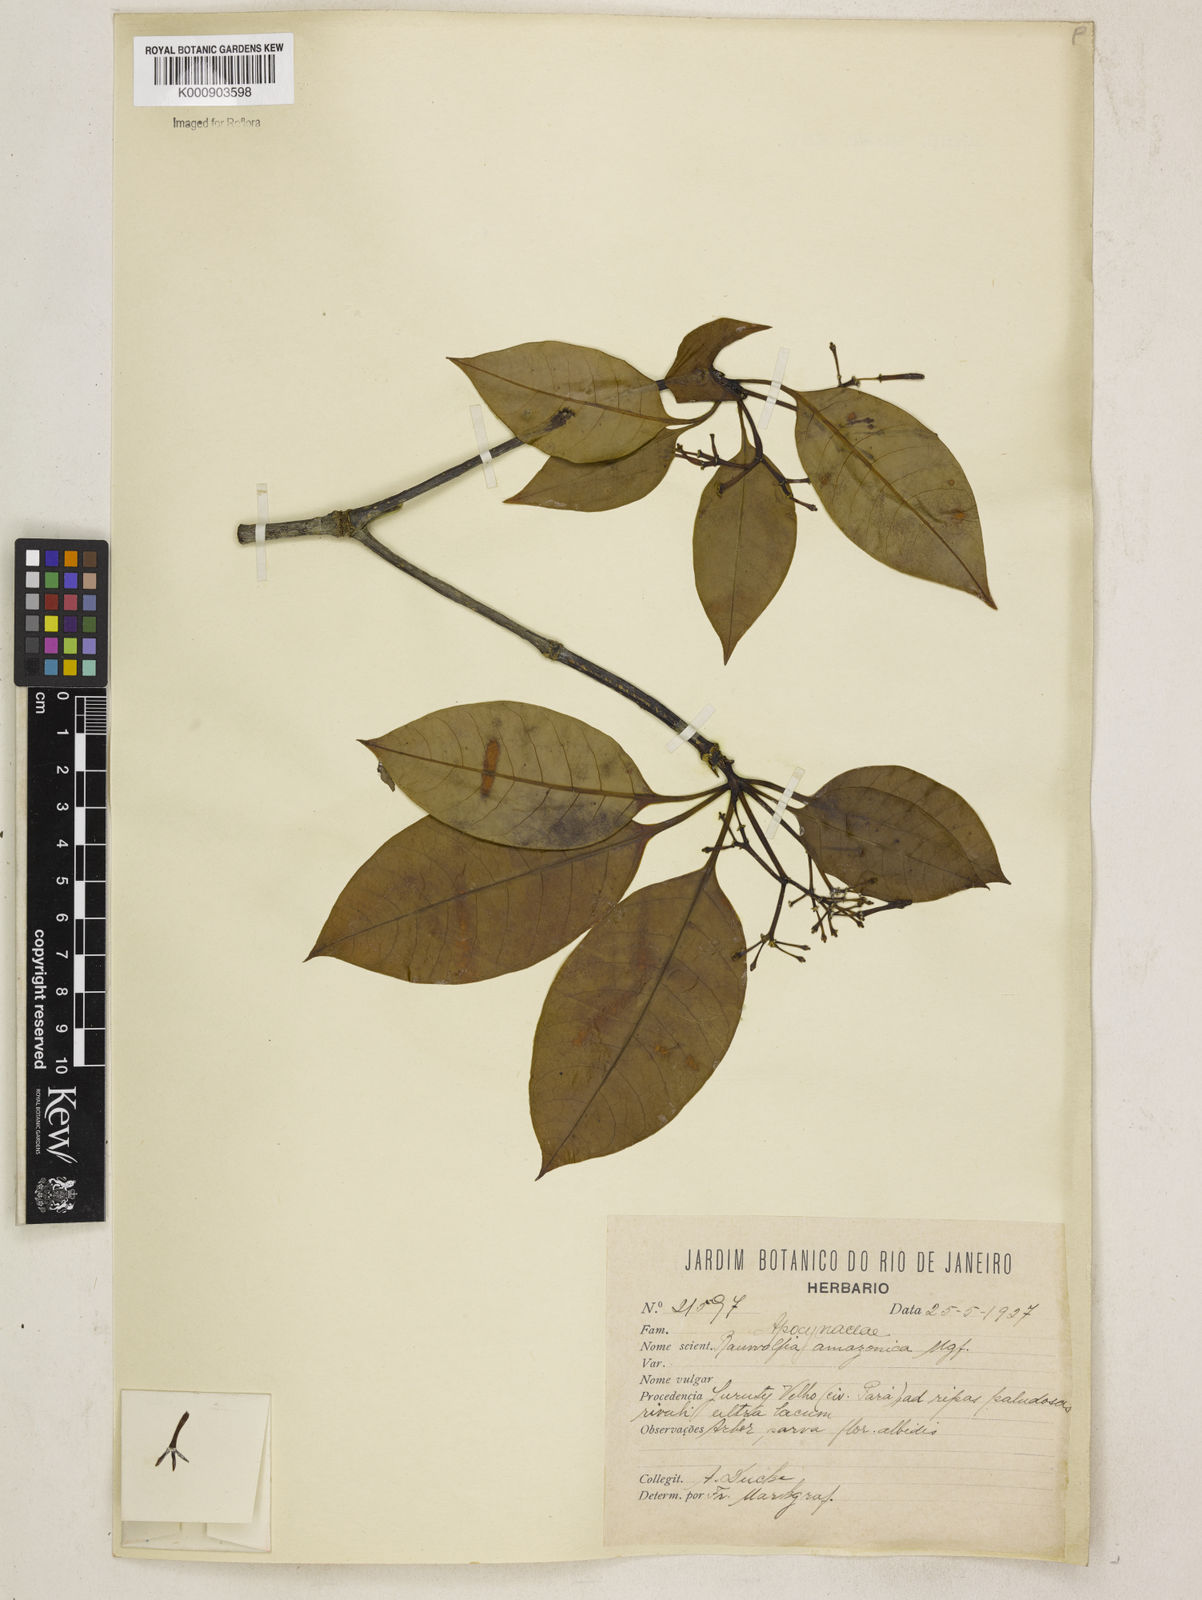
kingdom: Plantae
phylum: Tracheophyta
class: Magnoliopsida
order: Gentianales
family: Apocynaceae
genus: Rauvolfia
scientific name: Rauvolfia macrantha
